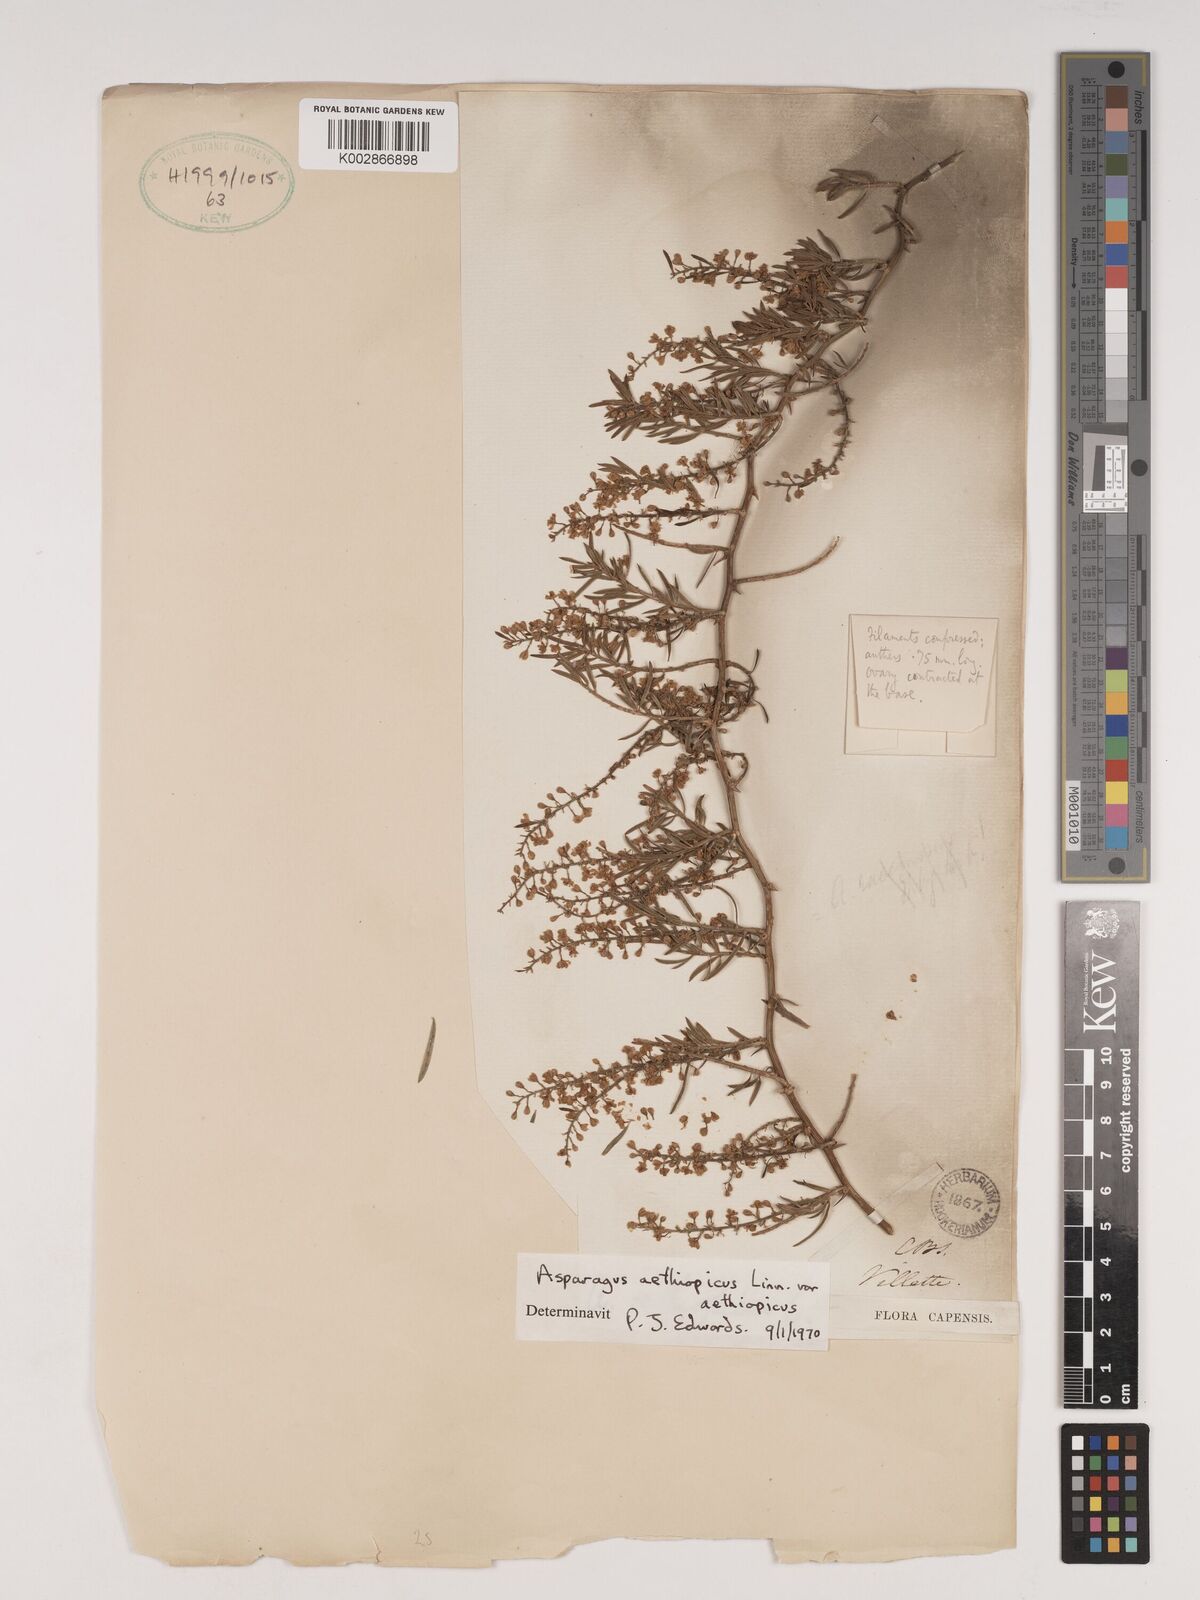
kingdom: Plantae
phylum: Tracheophyta
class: Liliopsida
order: Asparagales
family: Asparagaceae
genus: Asparagus
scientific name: Asparagus aethiopicus
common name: Sprenger's asparagus fern
